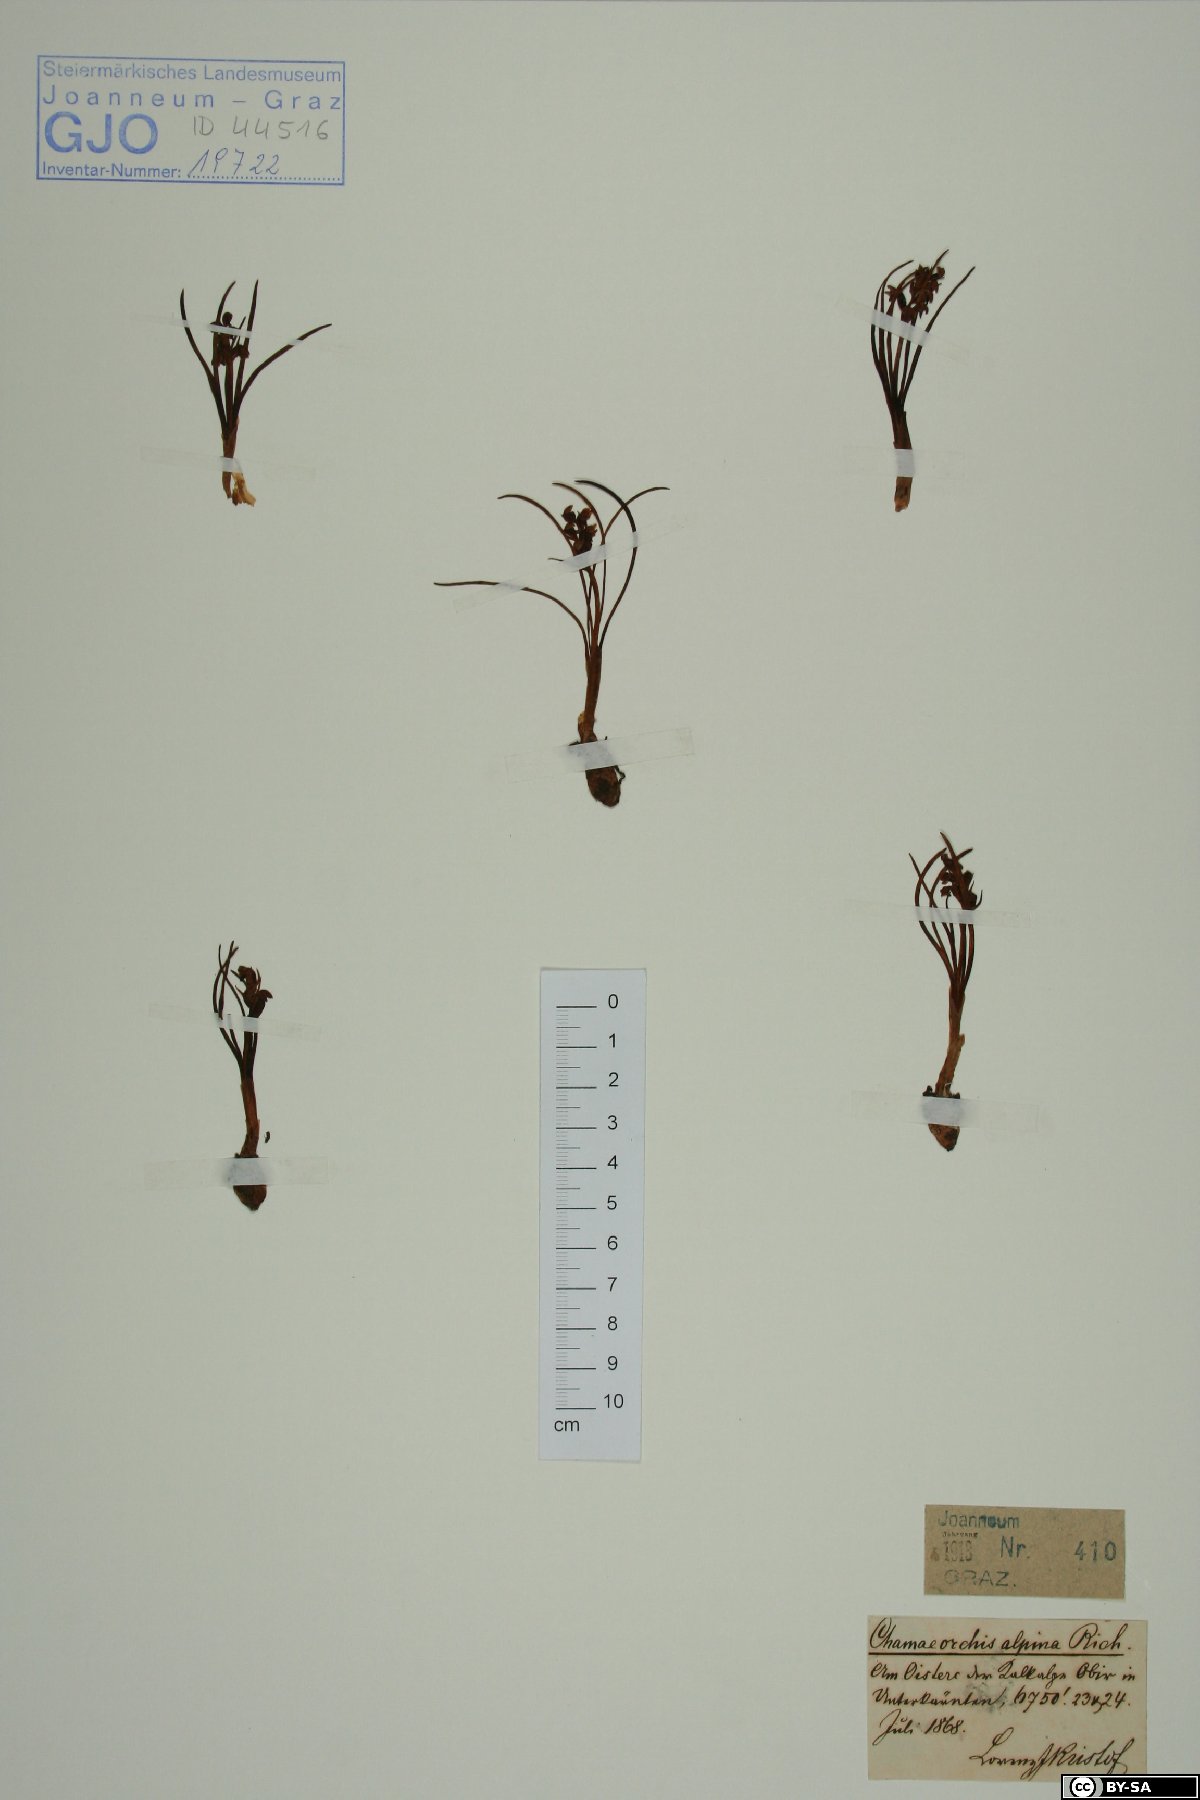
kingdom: Plantae
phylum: Tracheophyta
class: Liliopsida
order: Asparagales
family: Orchidaceae
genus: Chamorchis
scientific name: Chamorchis alpina
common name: Alpine chamorchis
